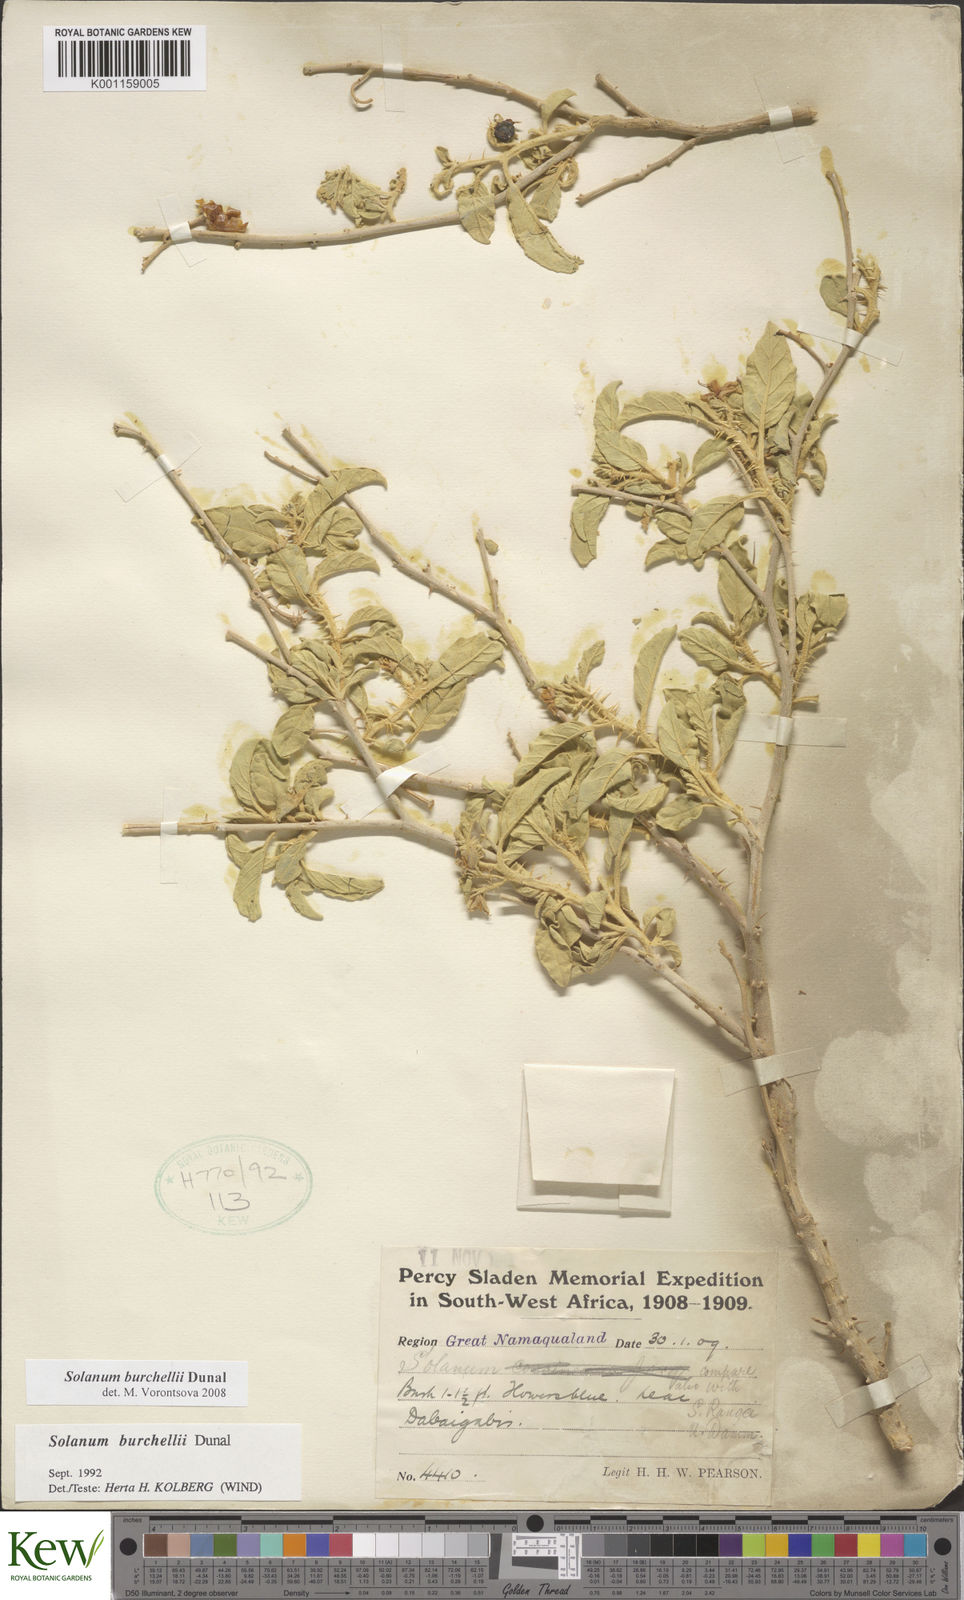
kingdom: Plantae
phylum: Tracheophyta
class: Magnoliopsida
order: Solanales
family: Solanaceae
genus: Solanum
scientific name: Solanum burchellii
